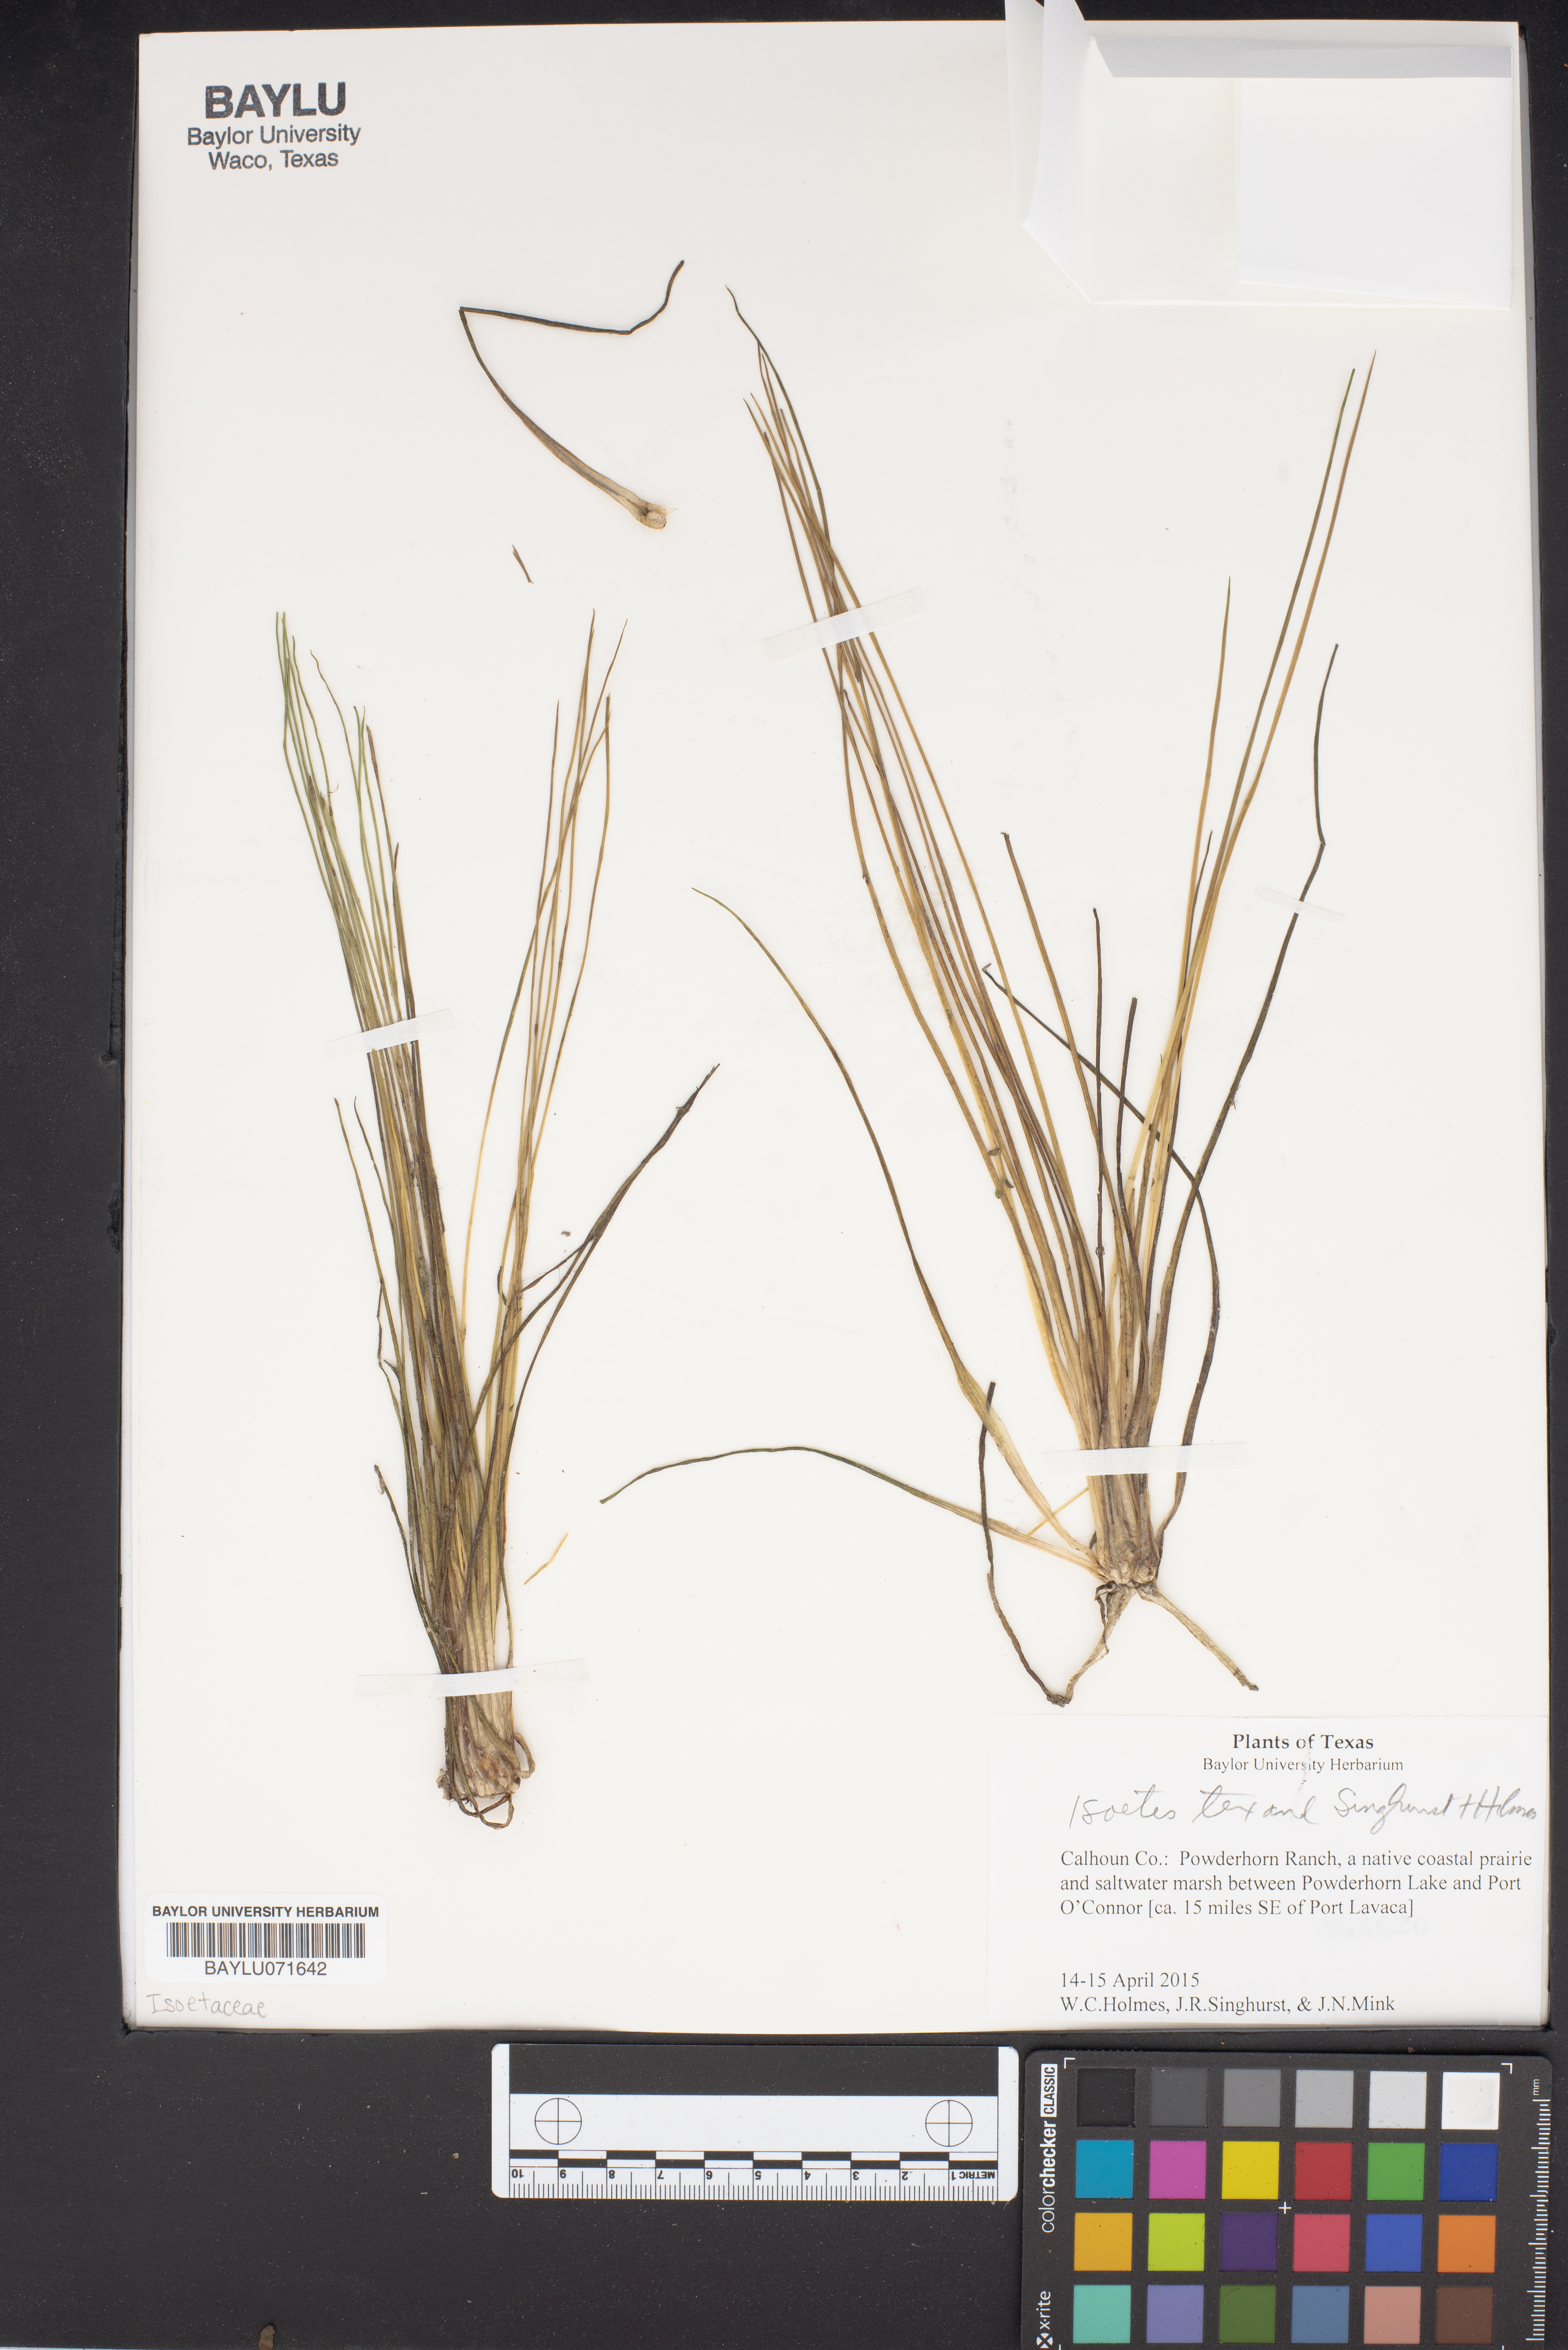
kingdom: Plantae
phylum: Tracheophyta
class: Lycopodiopsida
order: Isoetales
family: Isoetaceae
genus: Isoetes
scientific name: Isoetes
